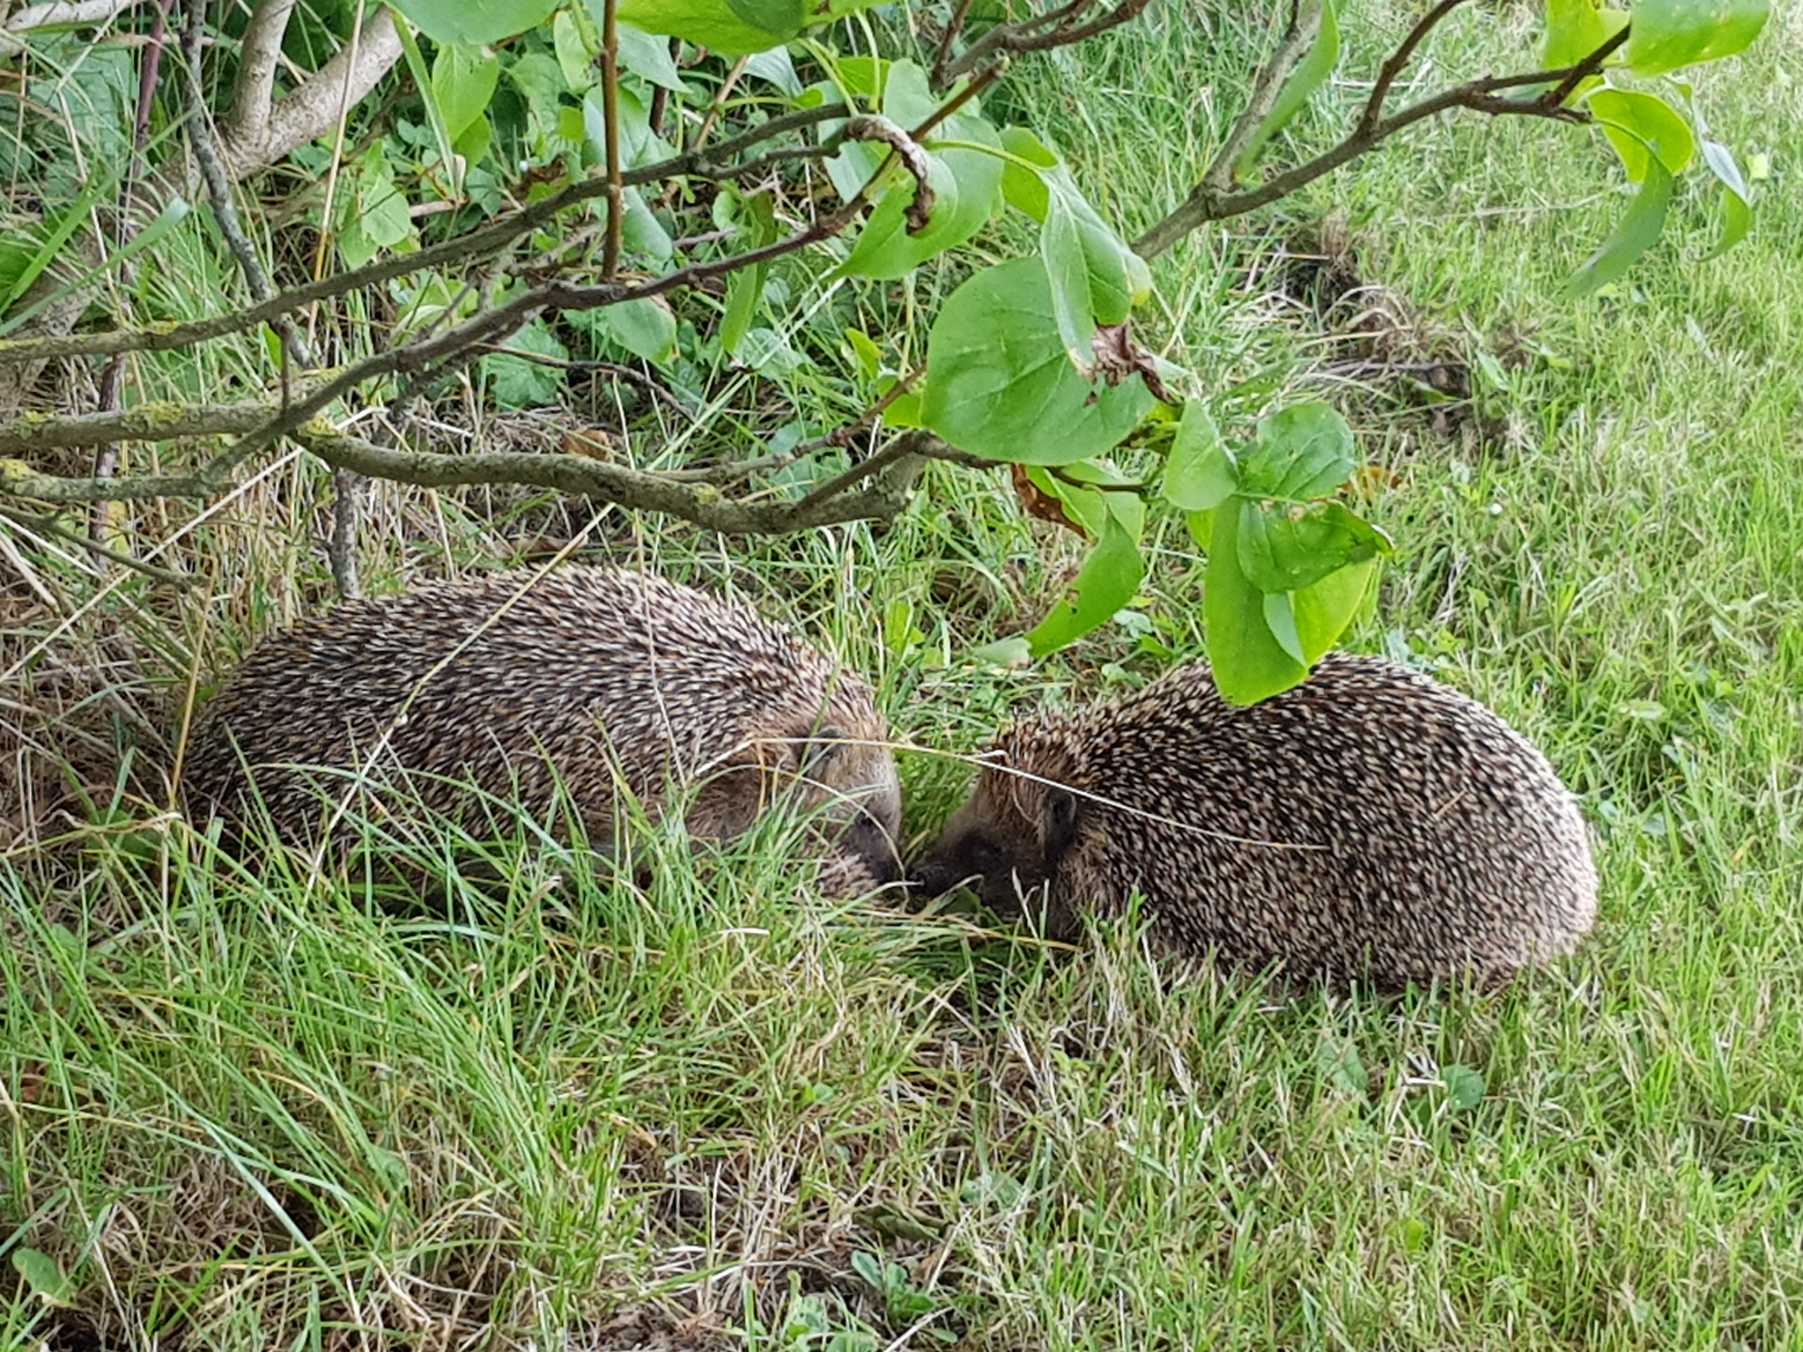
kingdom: Animalia
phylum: Chordata
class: Mammalia
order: Erinaceomorpha
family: Erinaceidae
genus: Erinaceus
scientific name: Erinaceus europaeus
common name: Pindsvin
